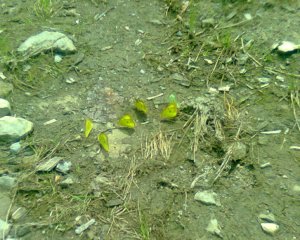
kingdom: Animalia
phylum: Arthropoda
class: Insecta
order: Lepidoptera
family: Pieridae
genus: Colias
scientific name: Colias philodice
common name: Clouded Sulphur
